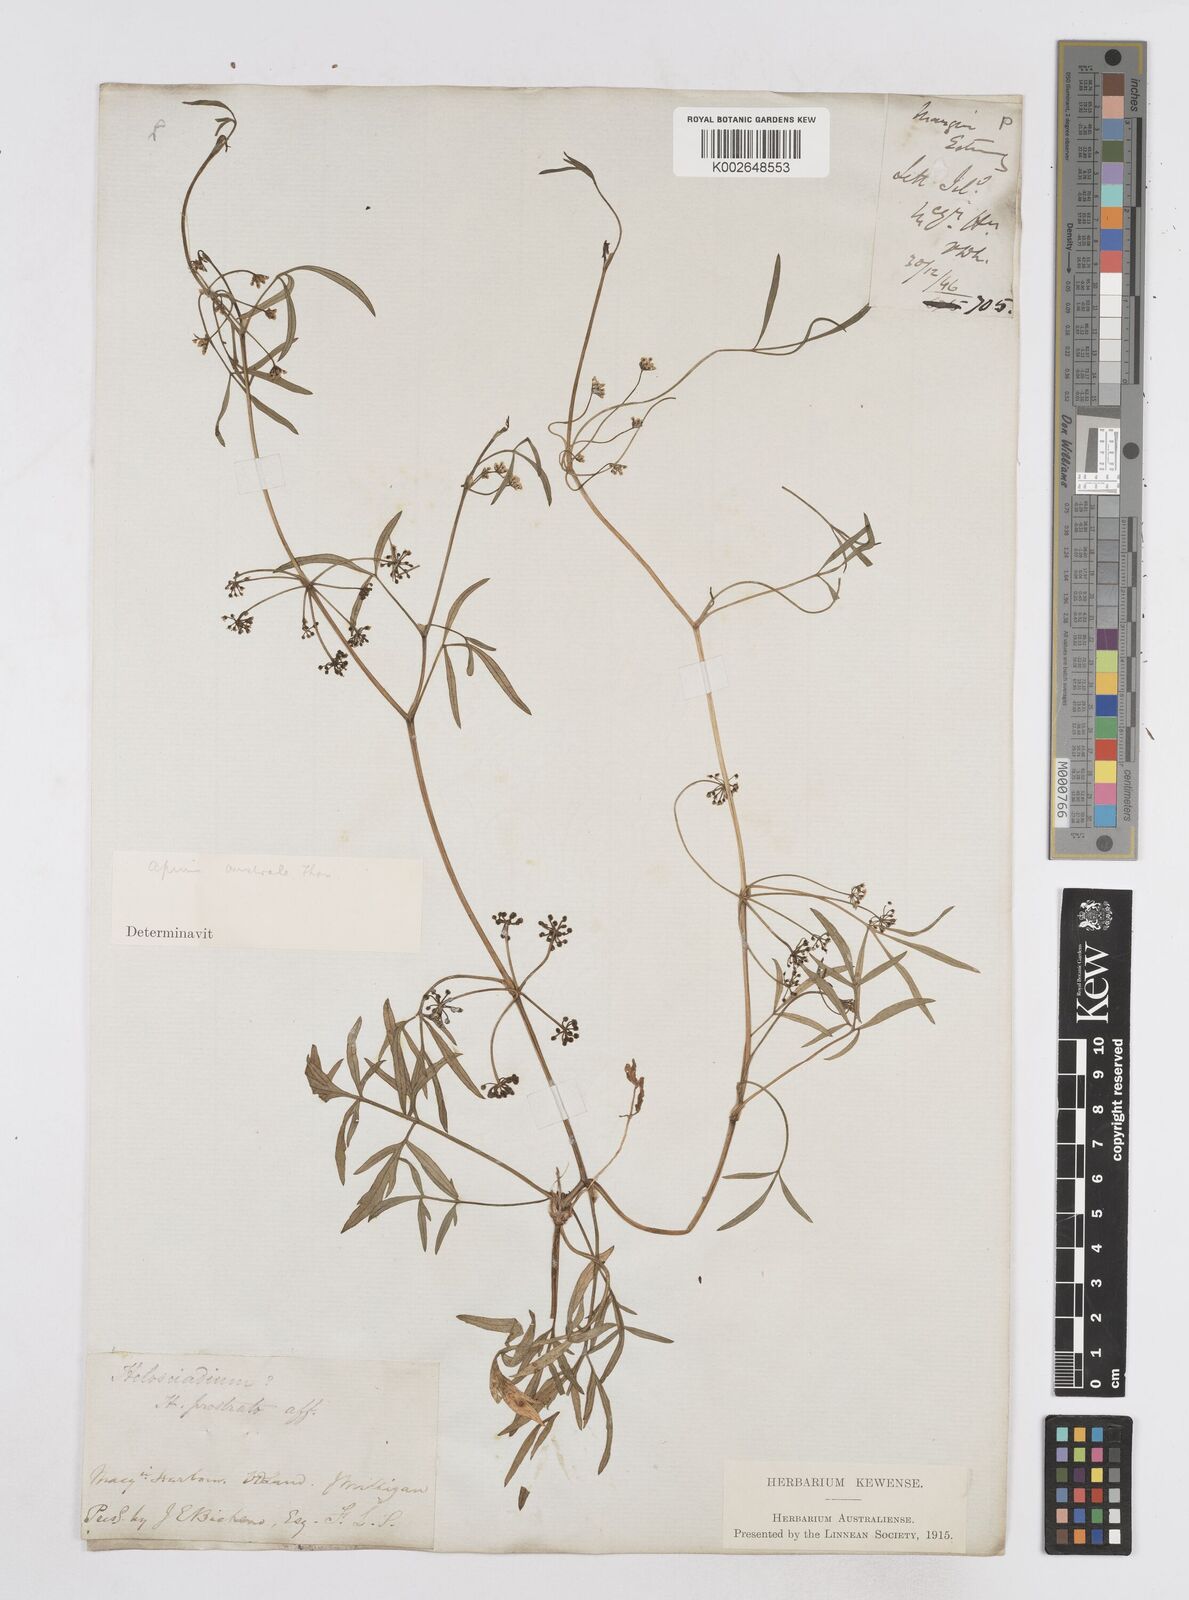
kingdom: Plantae
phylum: Tracheophyta
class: Magnoliopsida
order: Apiales
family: Apiaceae
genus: Apium
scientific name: Apium prostratum
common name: Prostrate marshwort
